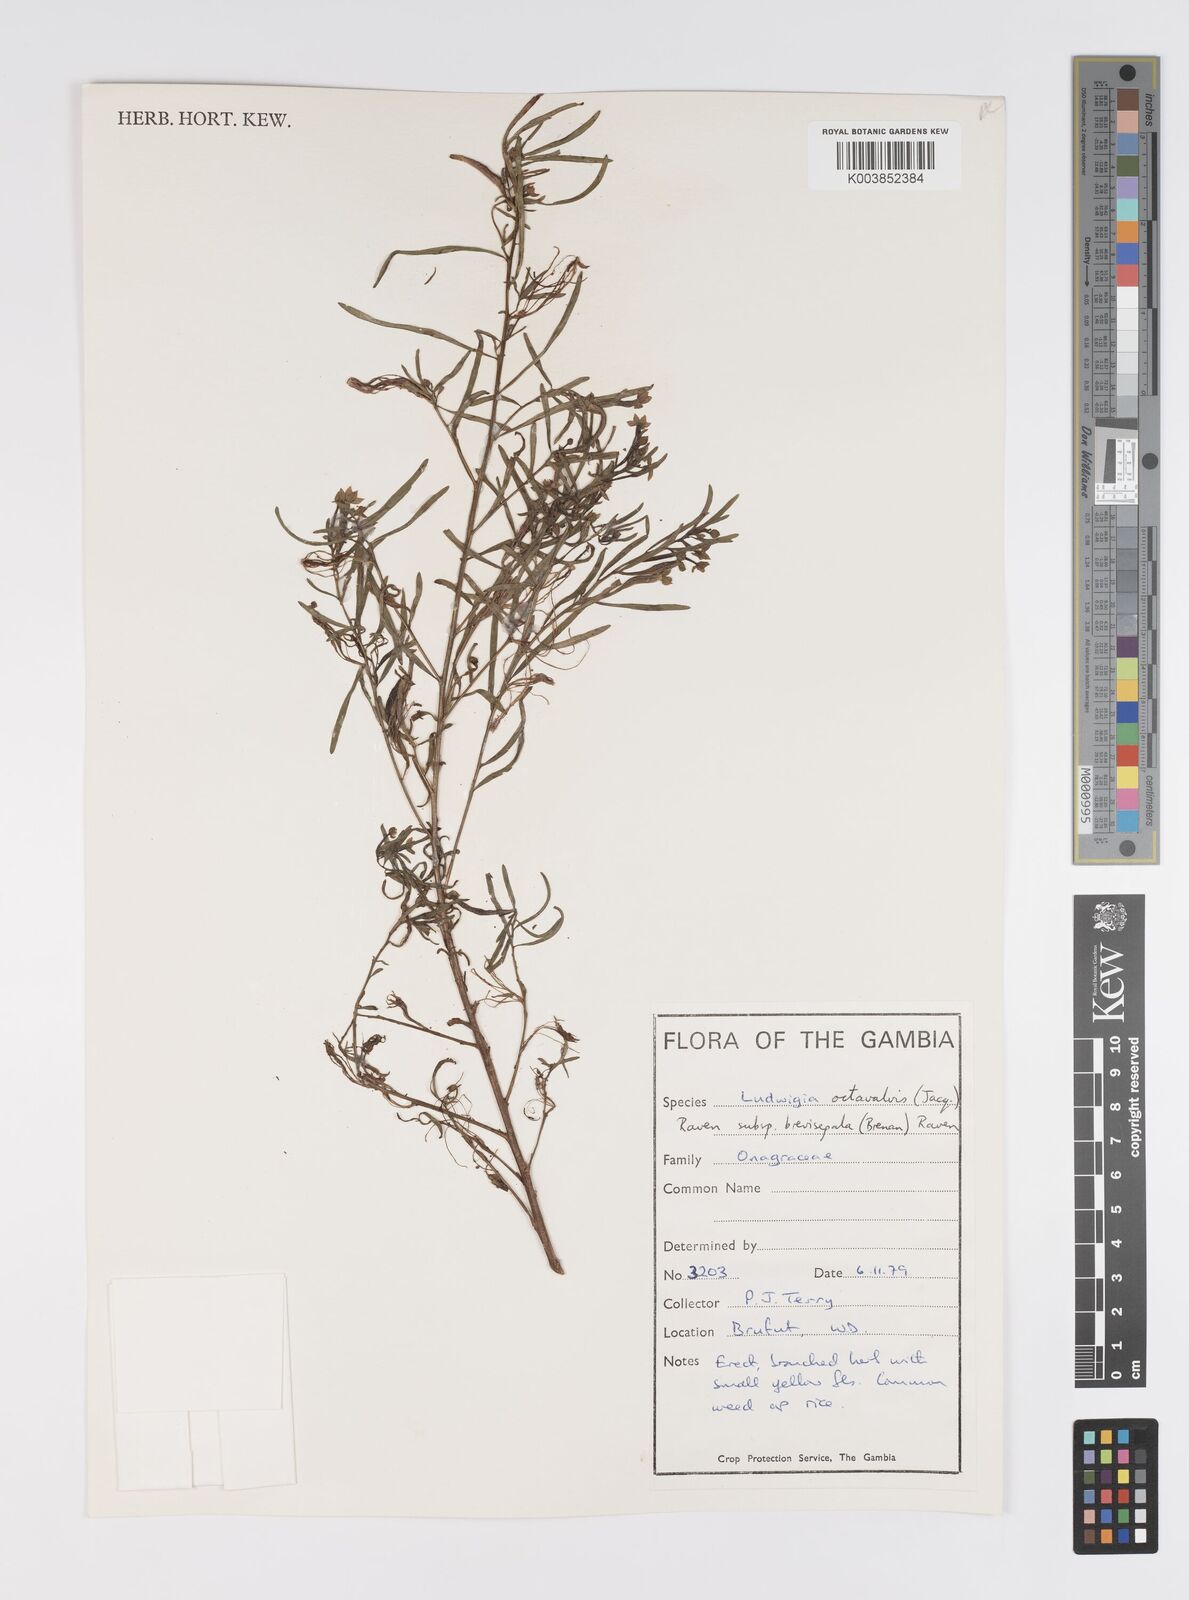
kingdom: Plantae
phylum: Tracheophyta
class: Magnoliopsida
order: Myrtales
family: Onagraceae
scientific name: Onagraceae
